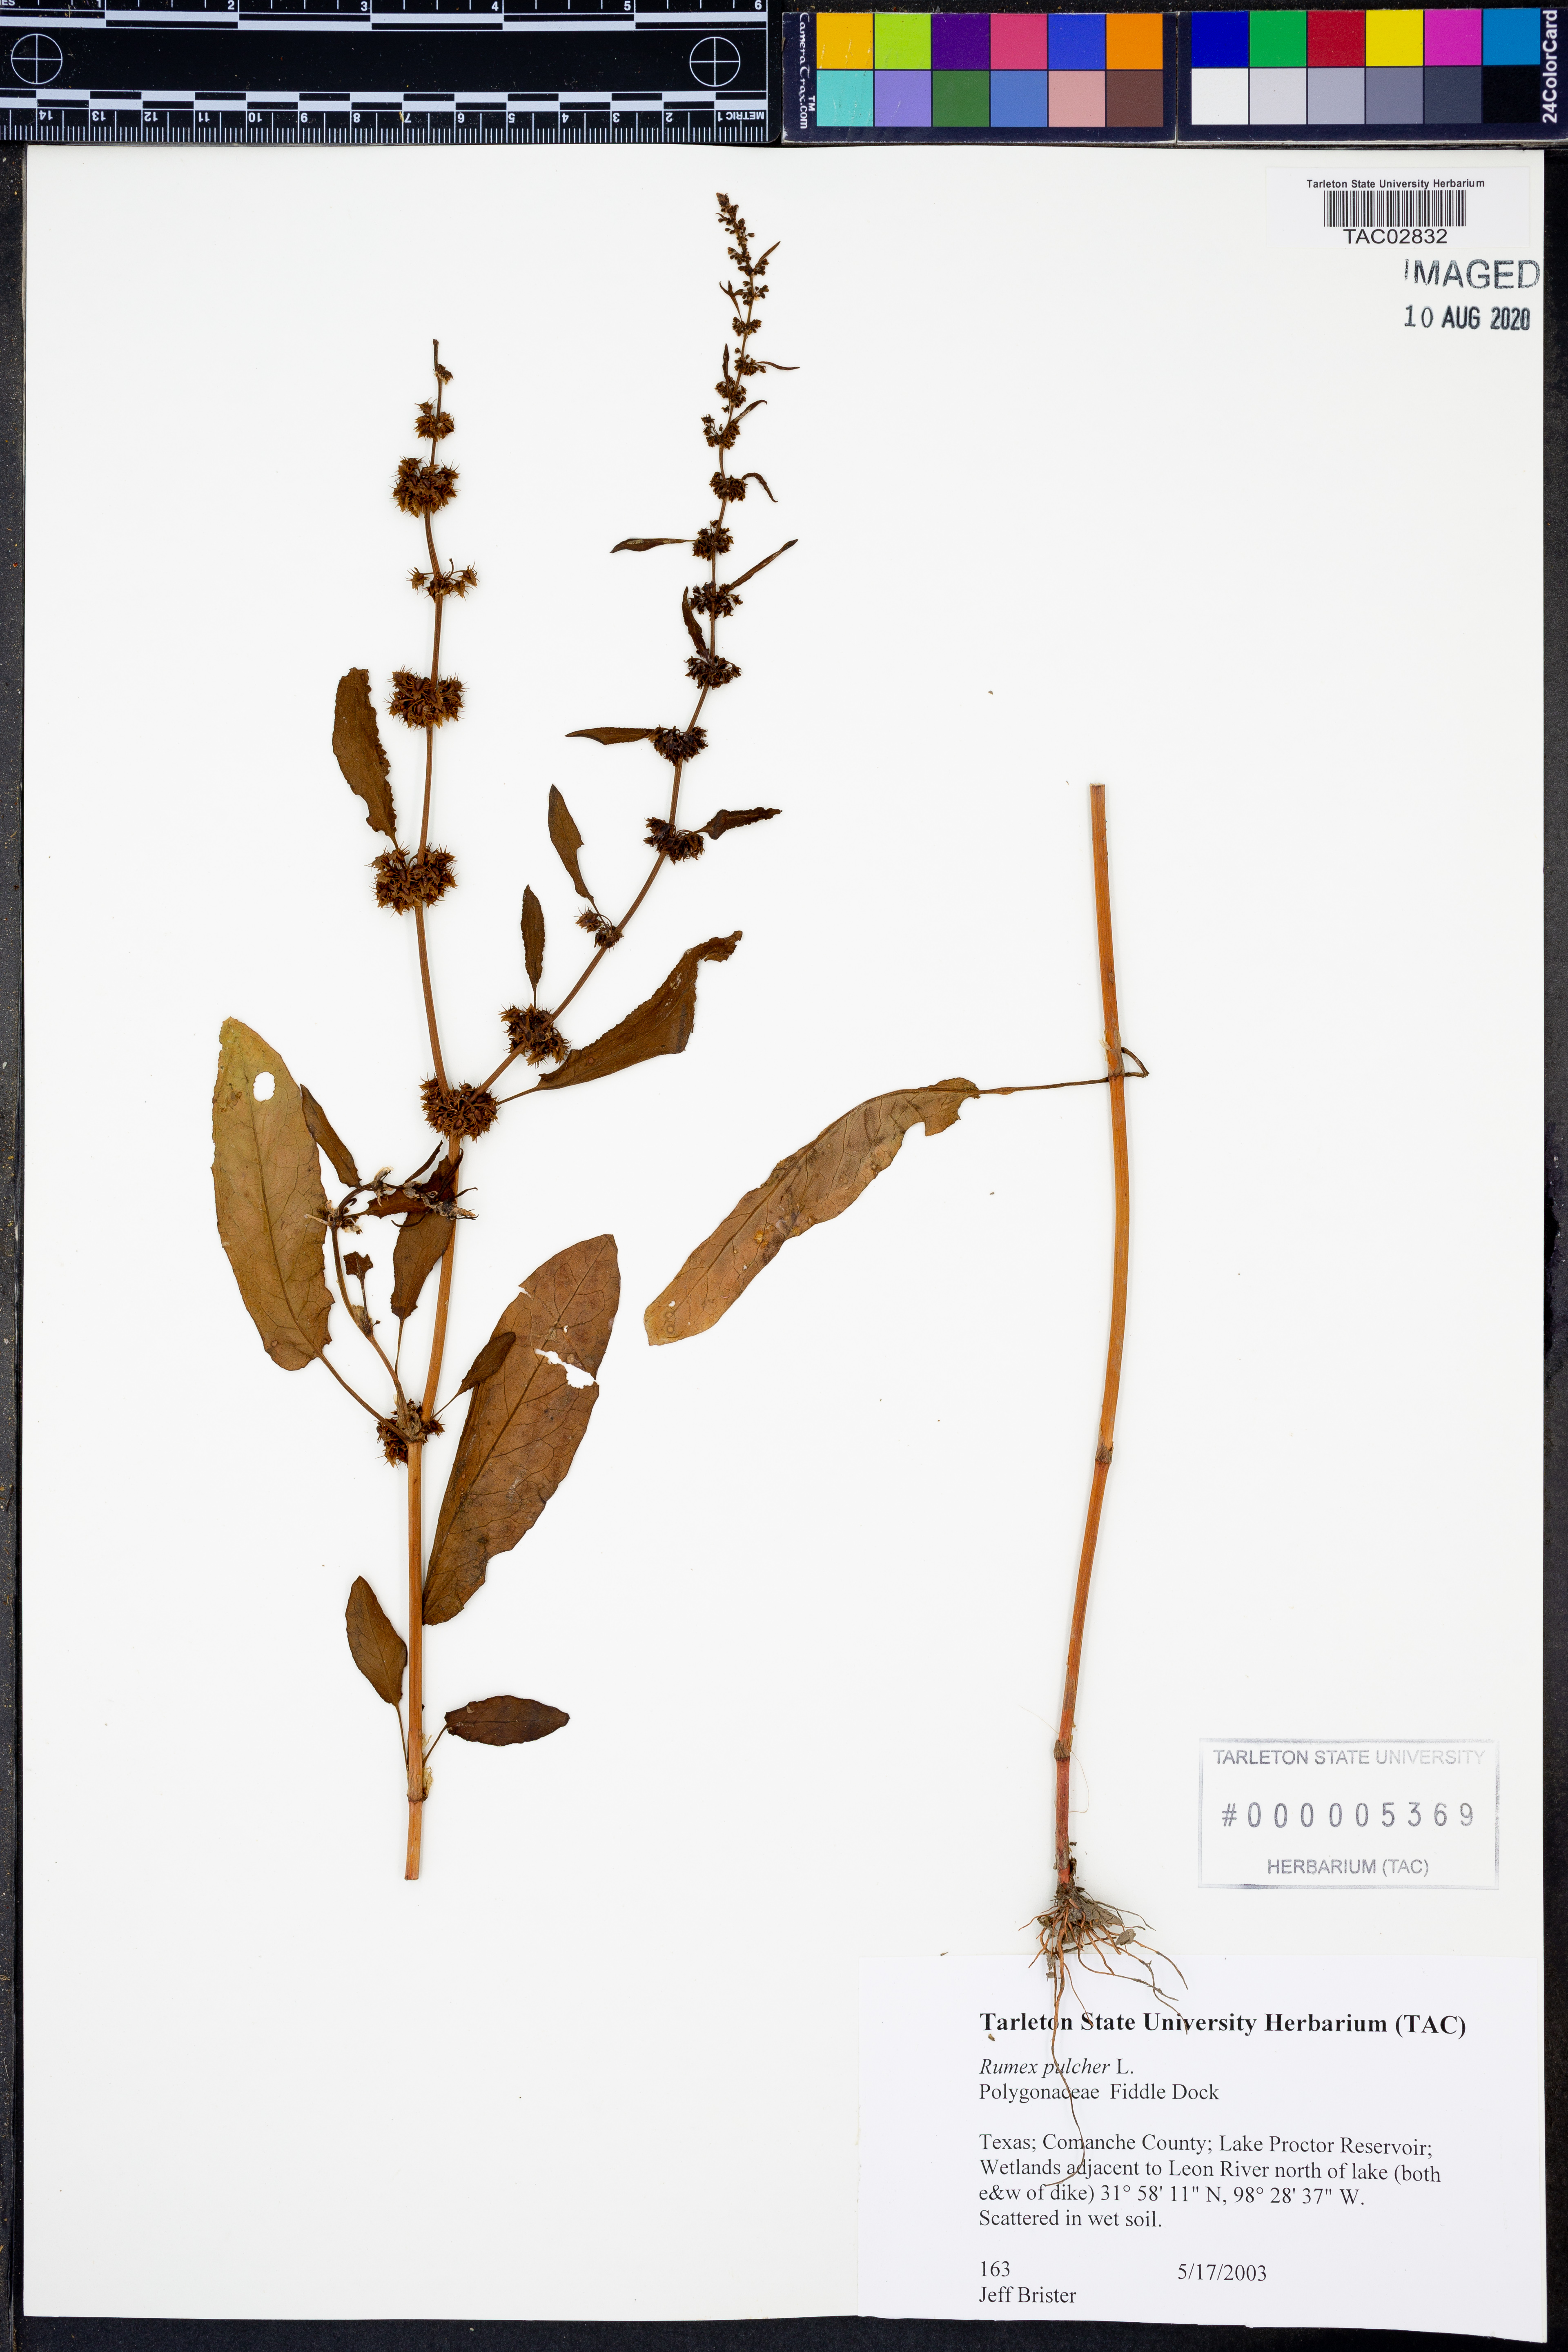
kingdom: Plantae
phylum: Tracheophyta
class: Magnoliopsida
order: Caryophyllales
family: Polygonaceae
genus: Rumex
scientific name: Rumex pulcher
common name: Fiddle dock
